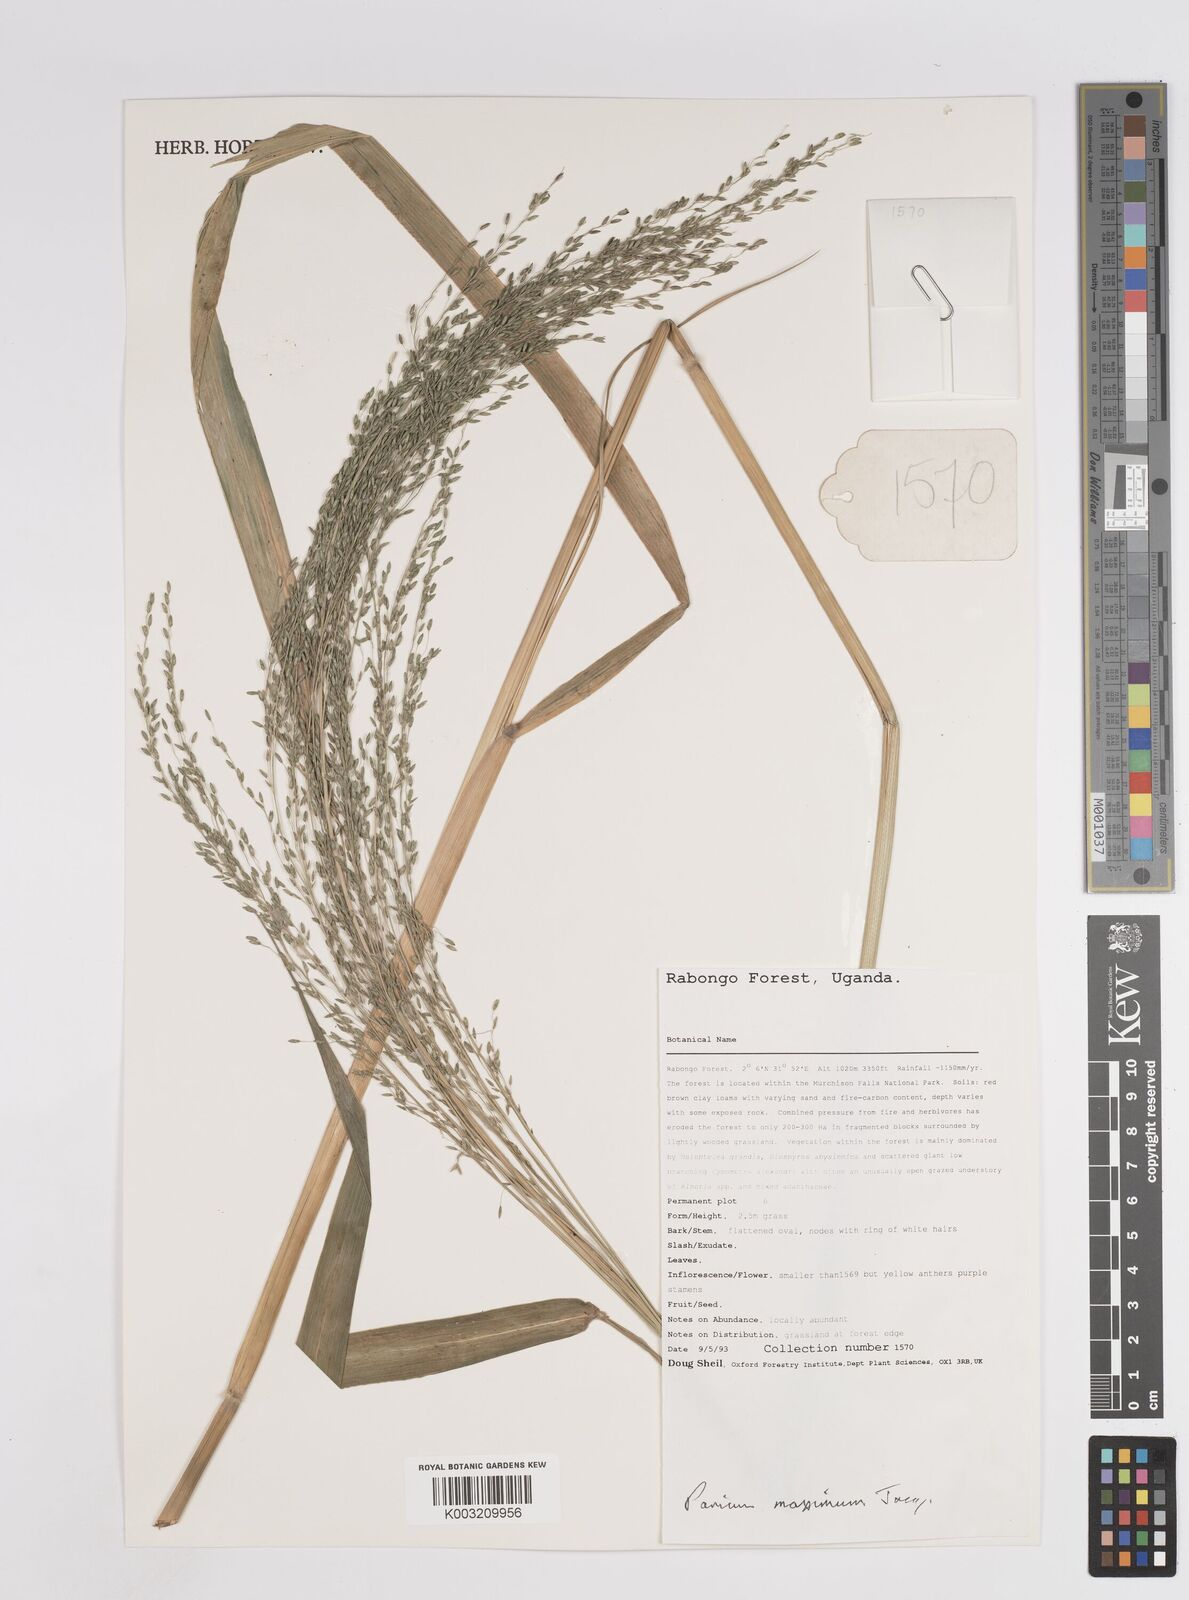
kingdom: Plantae
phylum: Tracheophyta
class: Liliopsida
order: Poales
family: Poaceae
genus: Megathyrsus
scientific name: Megathyrsus maximus
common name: Guineagrass
